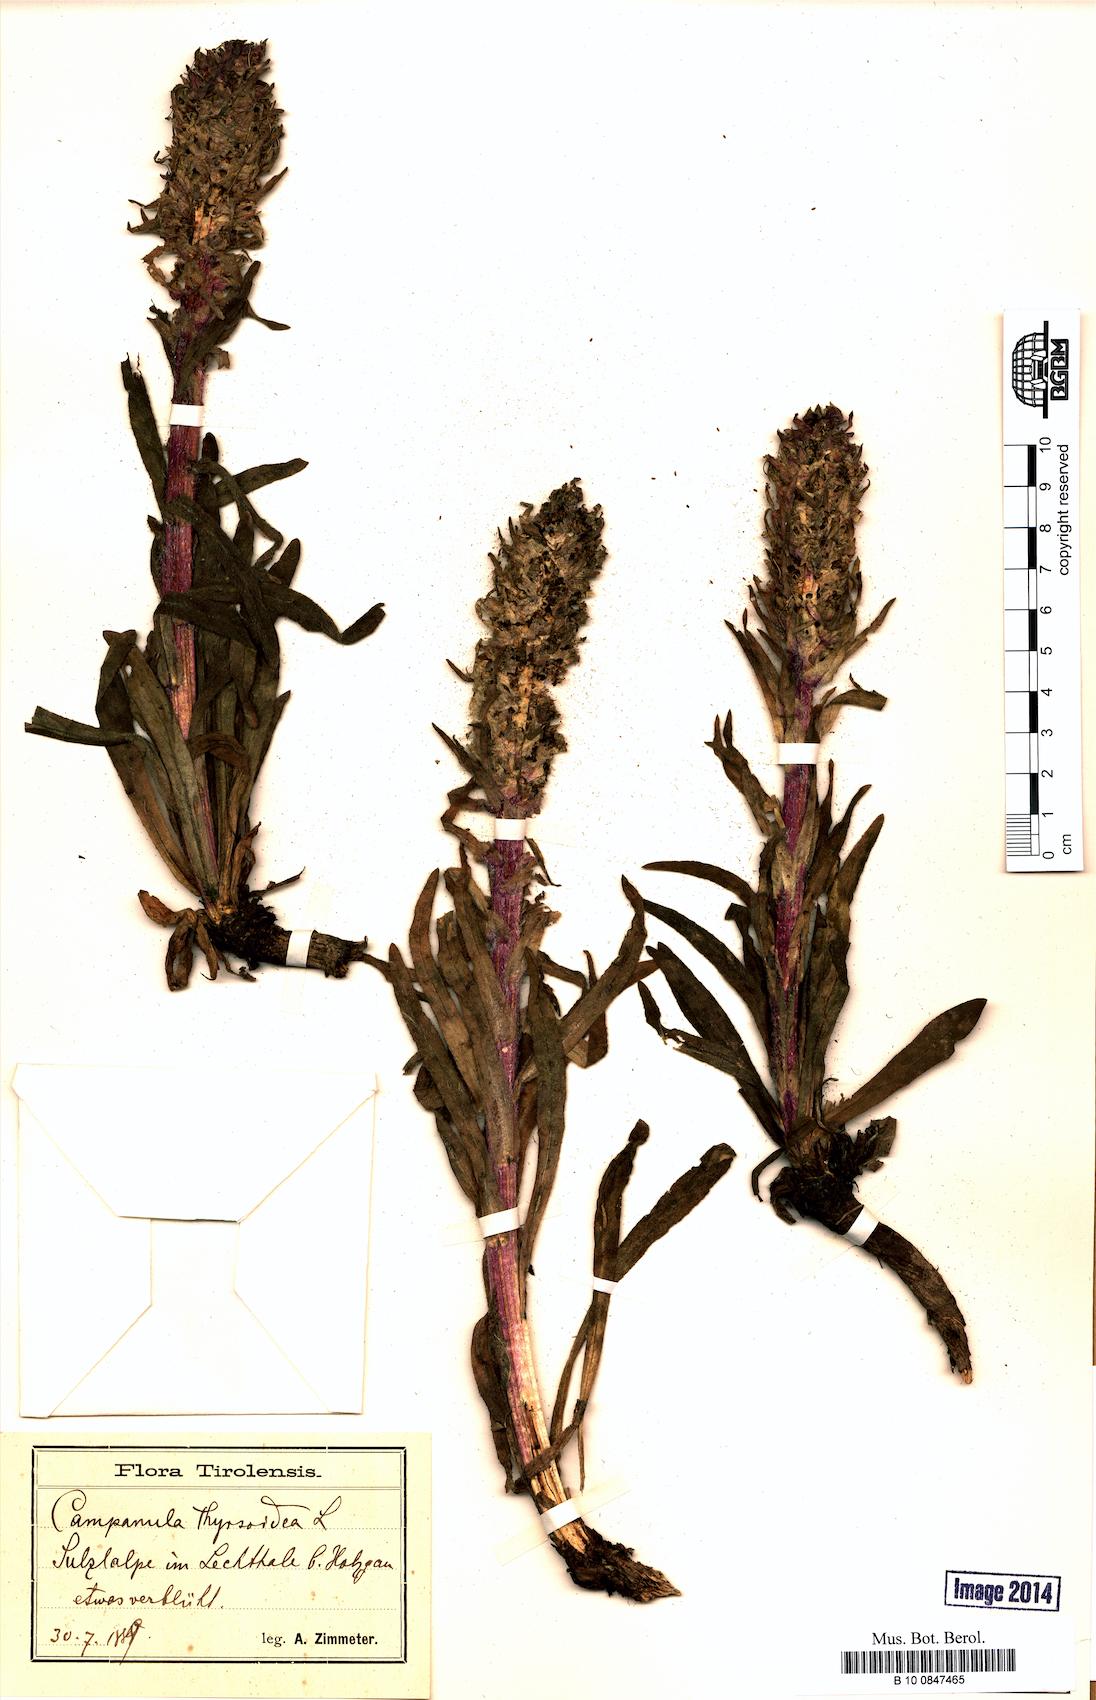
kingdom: Plantae
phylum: Tracheophyta
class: Magnoliopsida
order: Asterales
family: Campanulaceae
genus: Campanula
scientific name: Campanula thyrsoides
